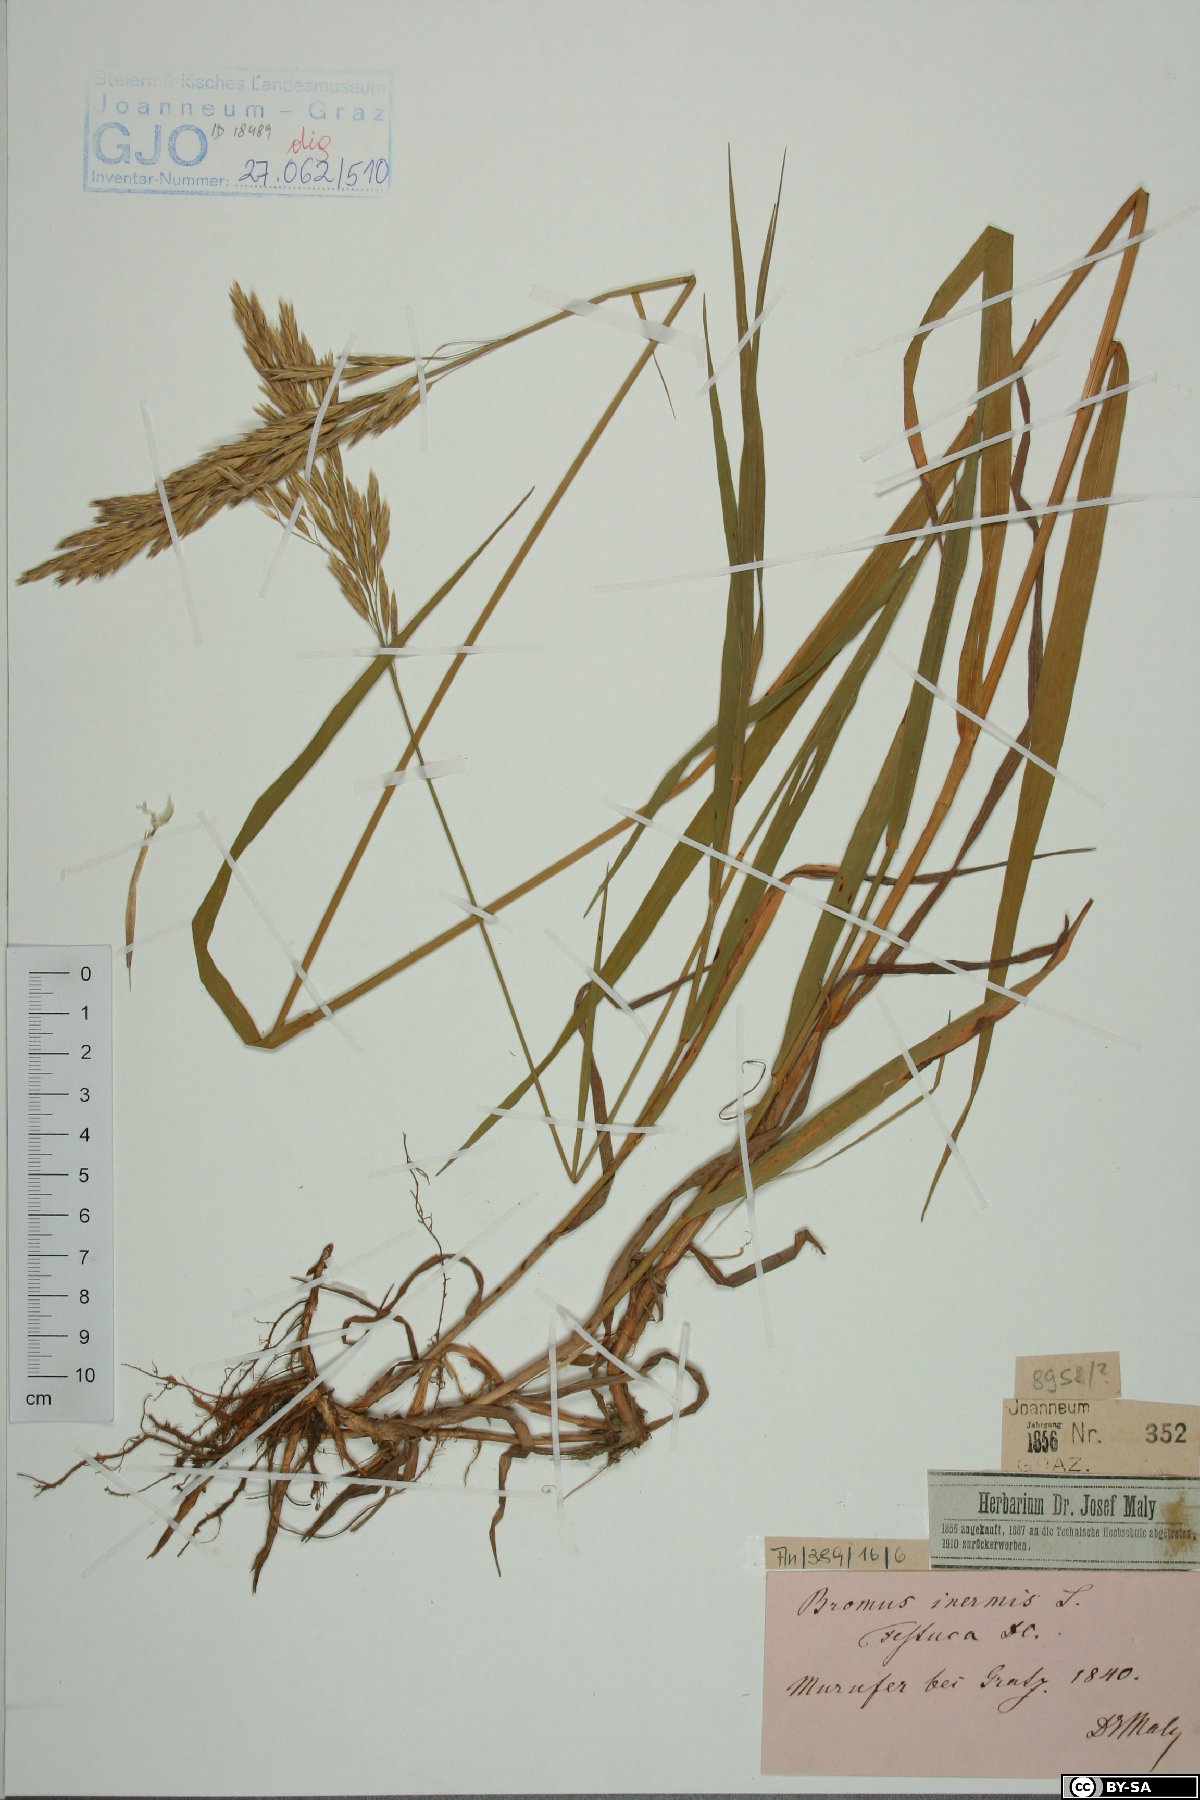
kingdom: Plantae
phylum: Tracheophyta
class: Liliopsida
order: Poales
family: Poaceae
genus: Bromus
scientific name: Bromus inermis
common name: Smooth brome
